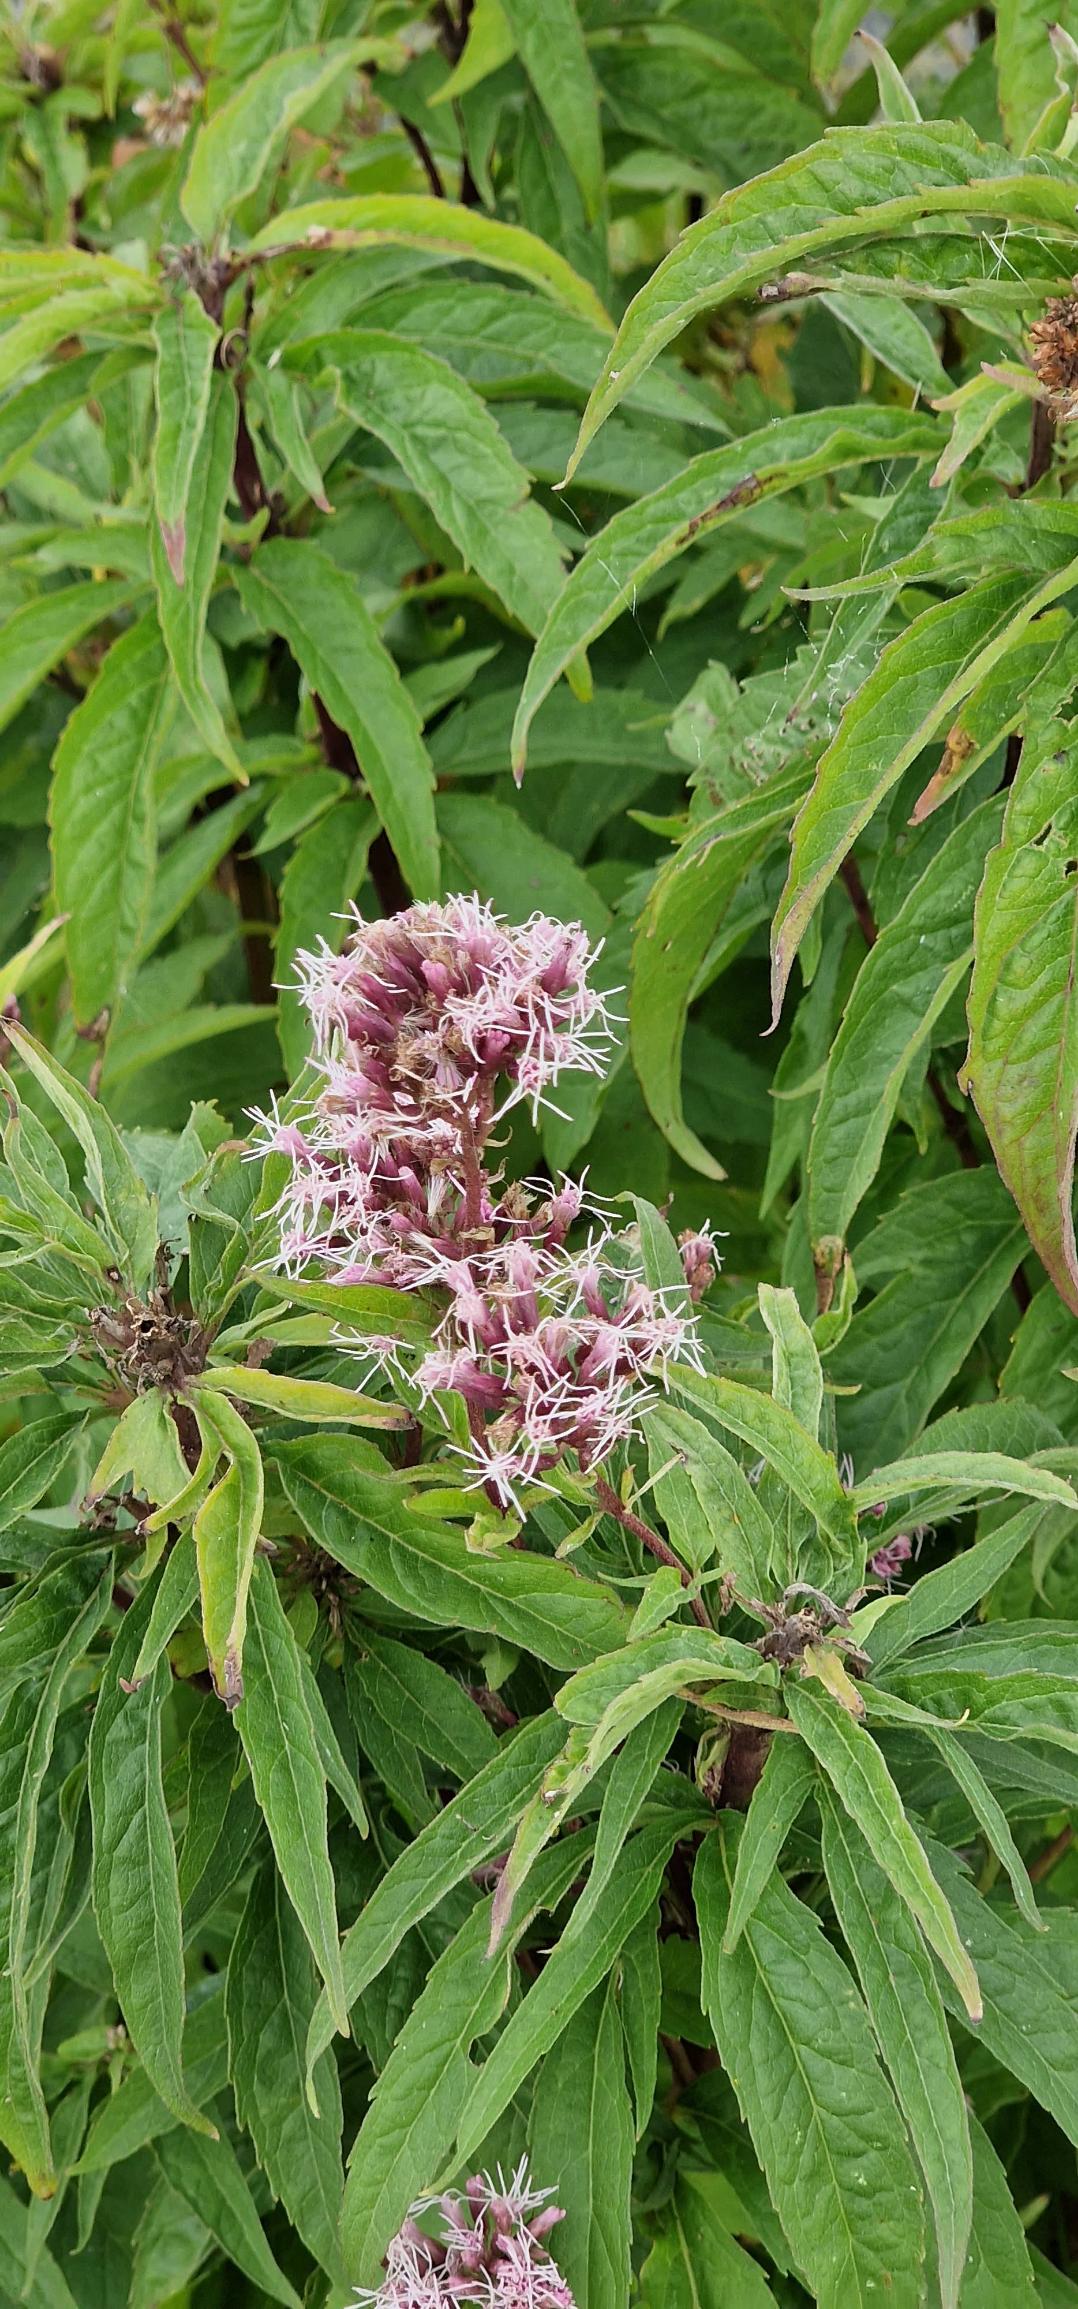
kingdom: Plantae
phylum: Tracheophyta
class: Magnoliopsida
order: Asterales
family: Asteraceae
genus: Eupatorium
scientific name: Eupatorium cannabinum
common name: Hjortetrøst
